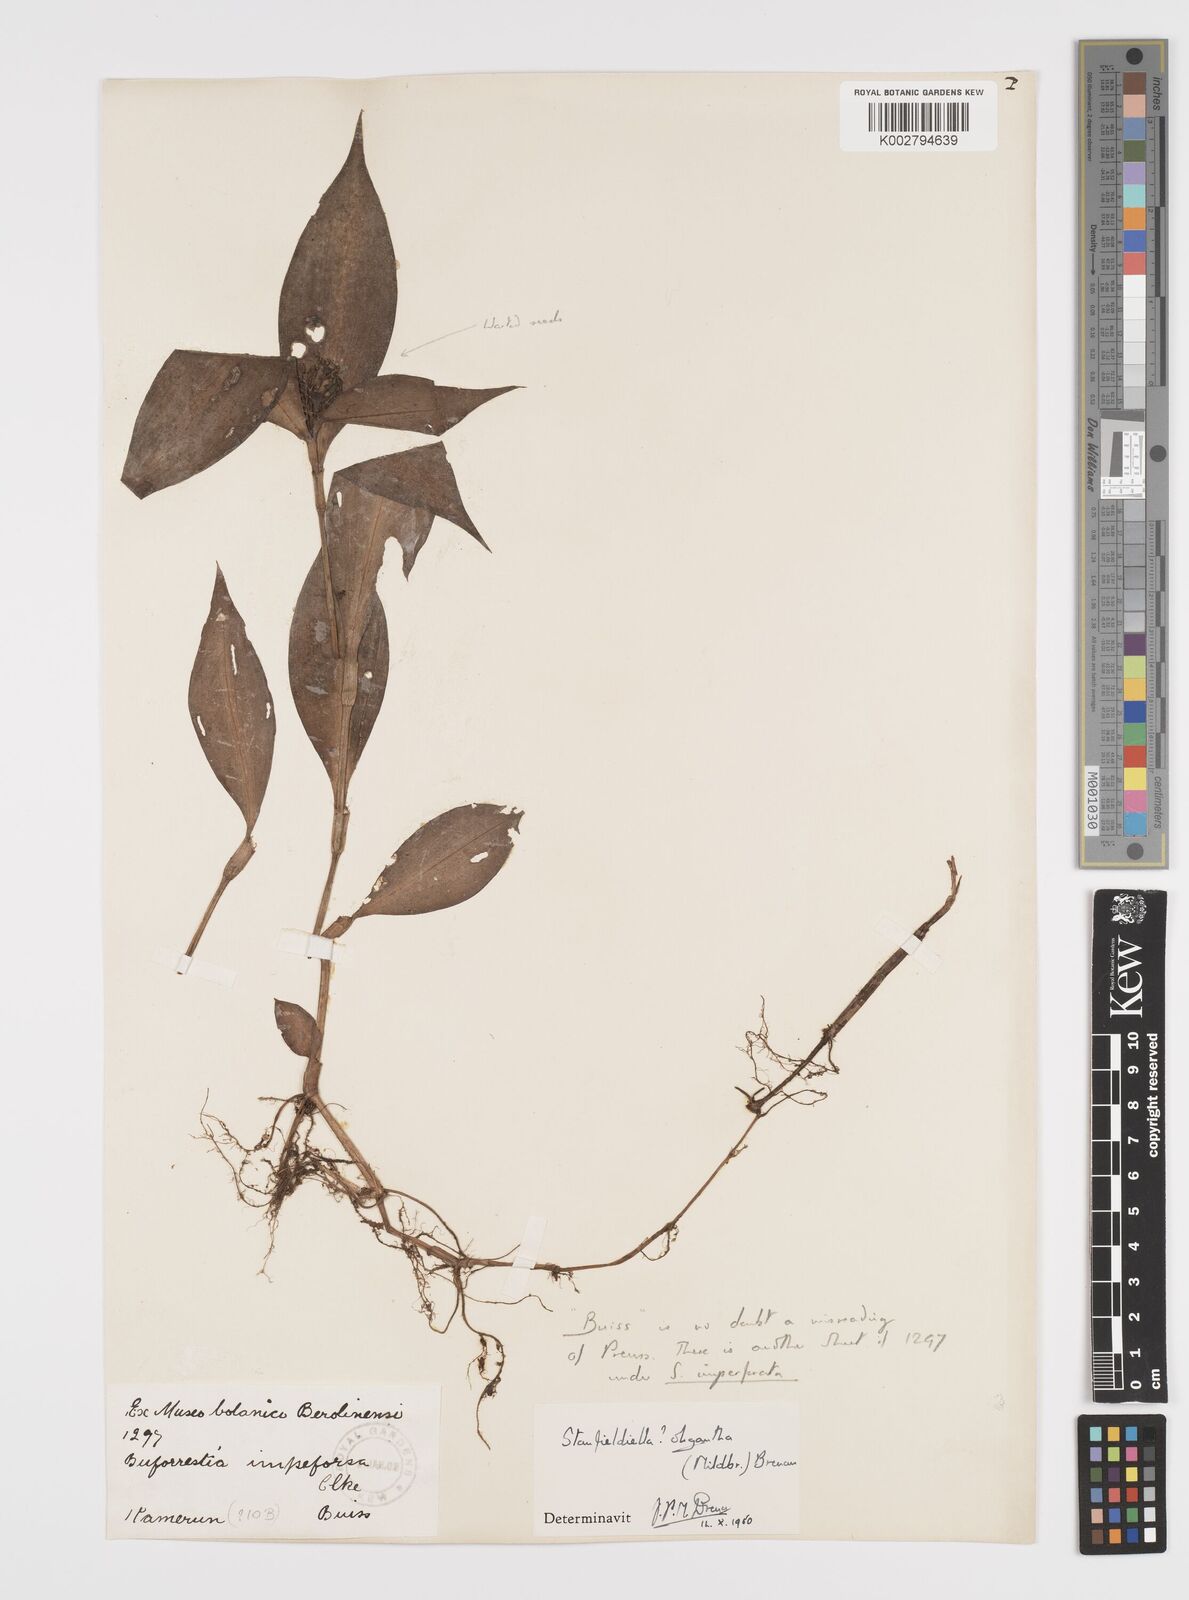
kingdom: Plantae
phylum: Tracheophyta
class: Liliopsida
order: Commelinales
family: Commelinaceae
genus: Stanfieldiella
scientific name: Stanfieldiella oligantha
